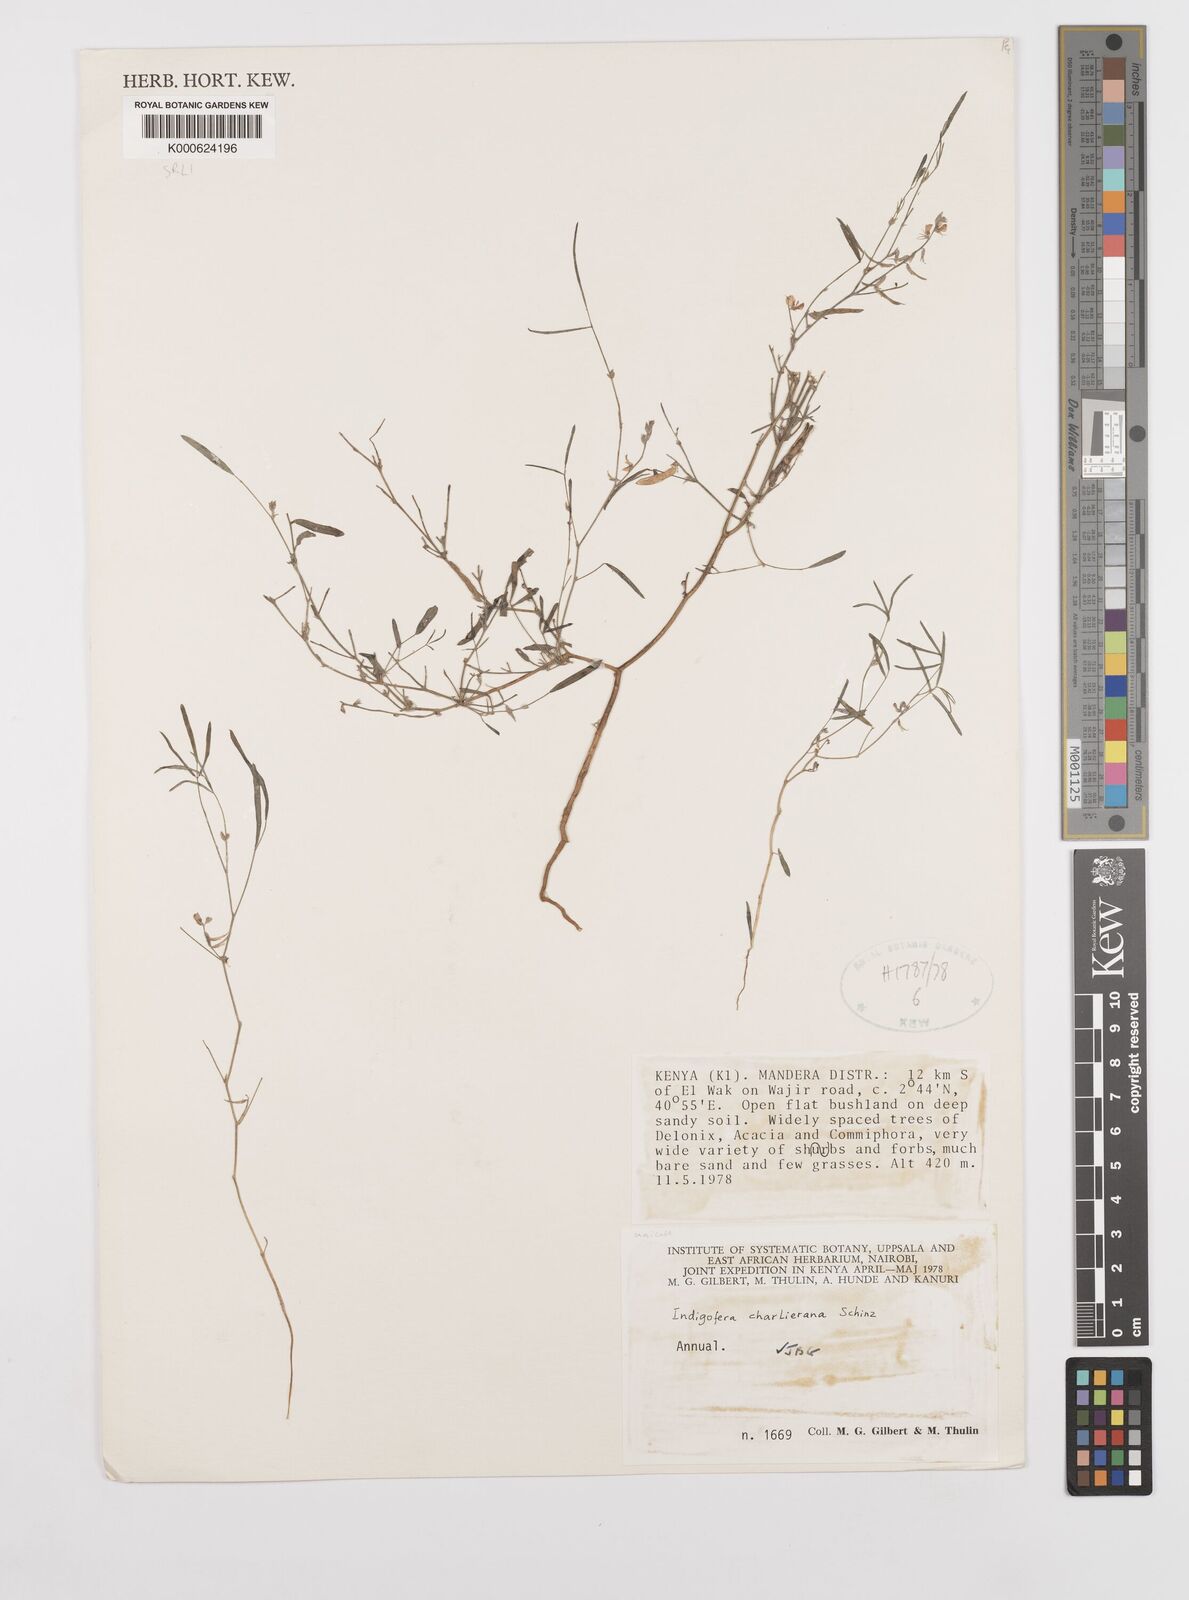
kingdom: Plantae
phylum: Tracheophyta
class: Magnoliopsida
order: Fabales
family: Fabaceae
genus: Indigofera
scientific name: Indigofera charlieriana
